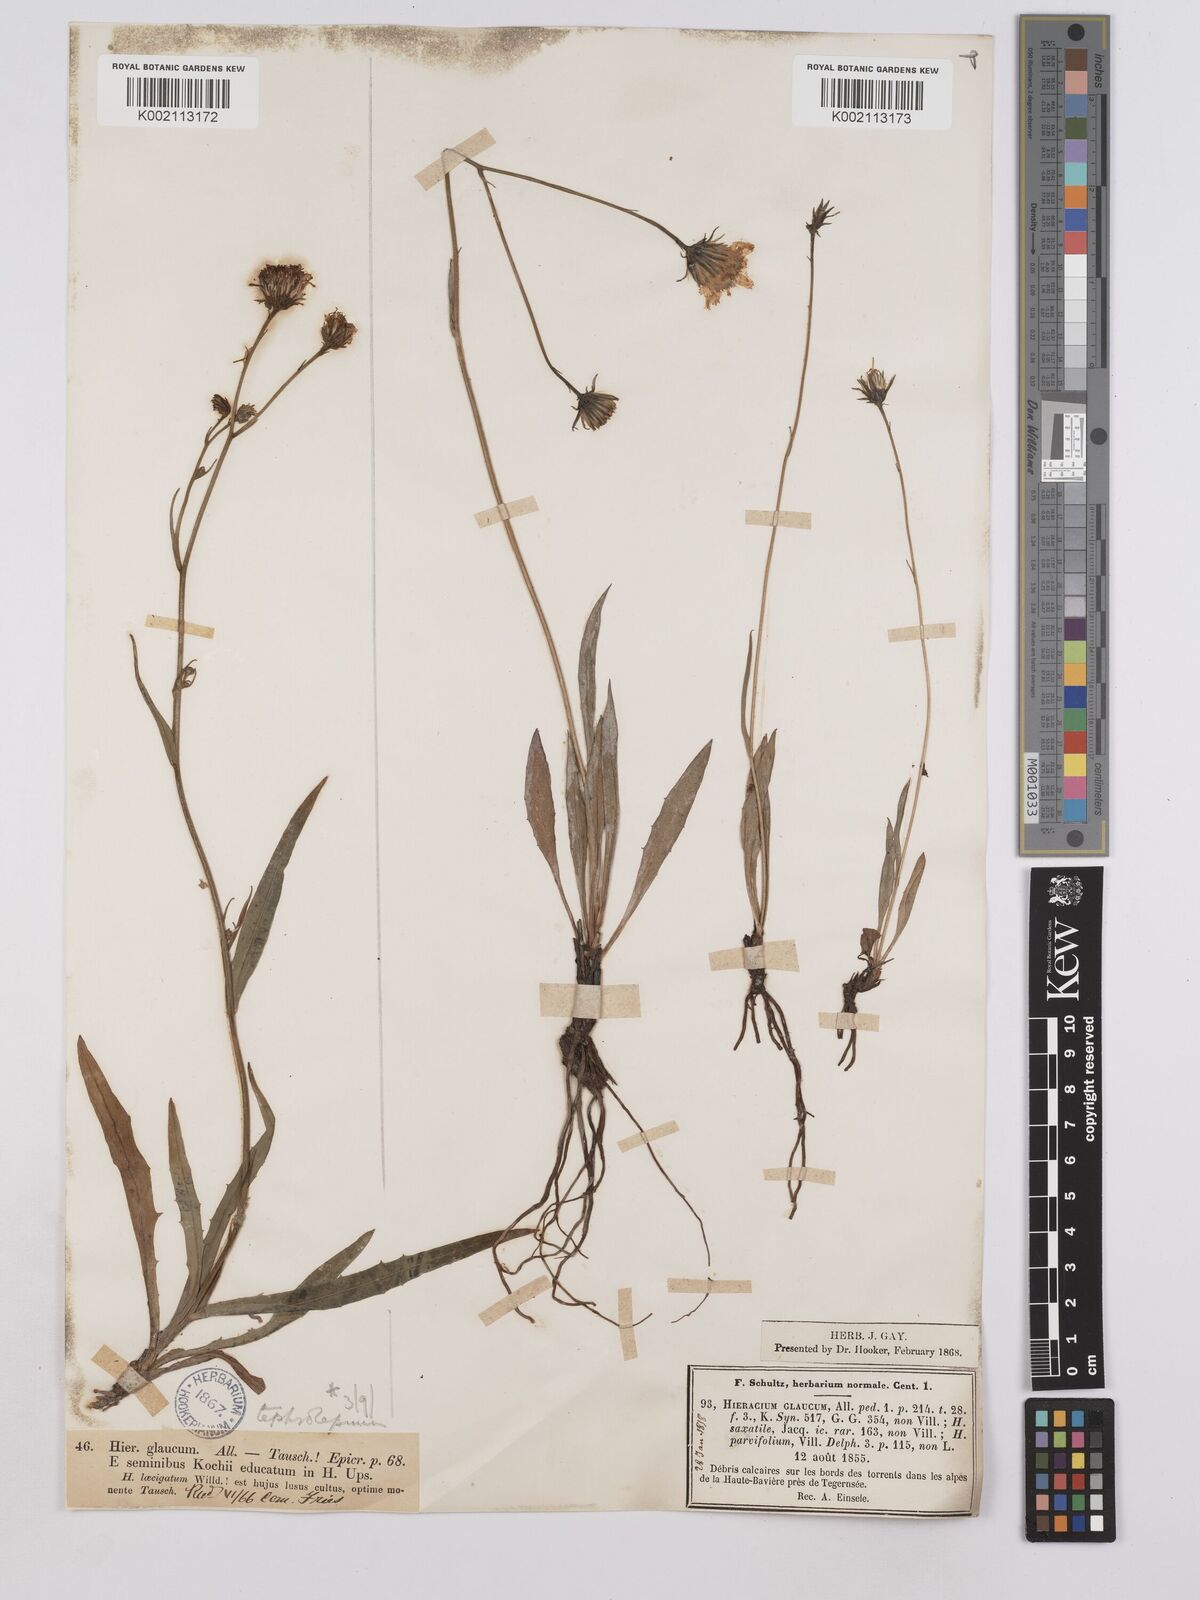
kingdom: Plantae
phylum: Tracheophyta
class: Magnoliopsida
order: Asterales
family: Asteraceae
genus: Hieracium
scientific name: Hieracium glaucum
